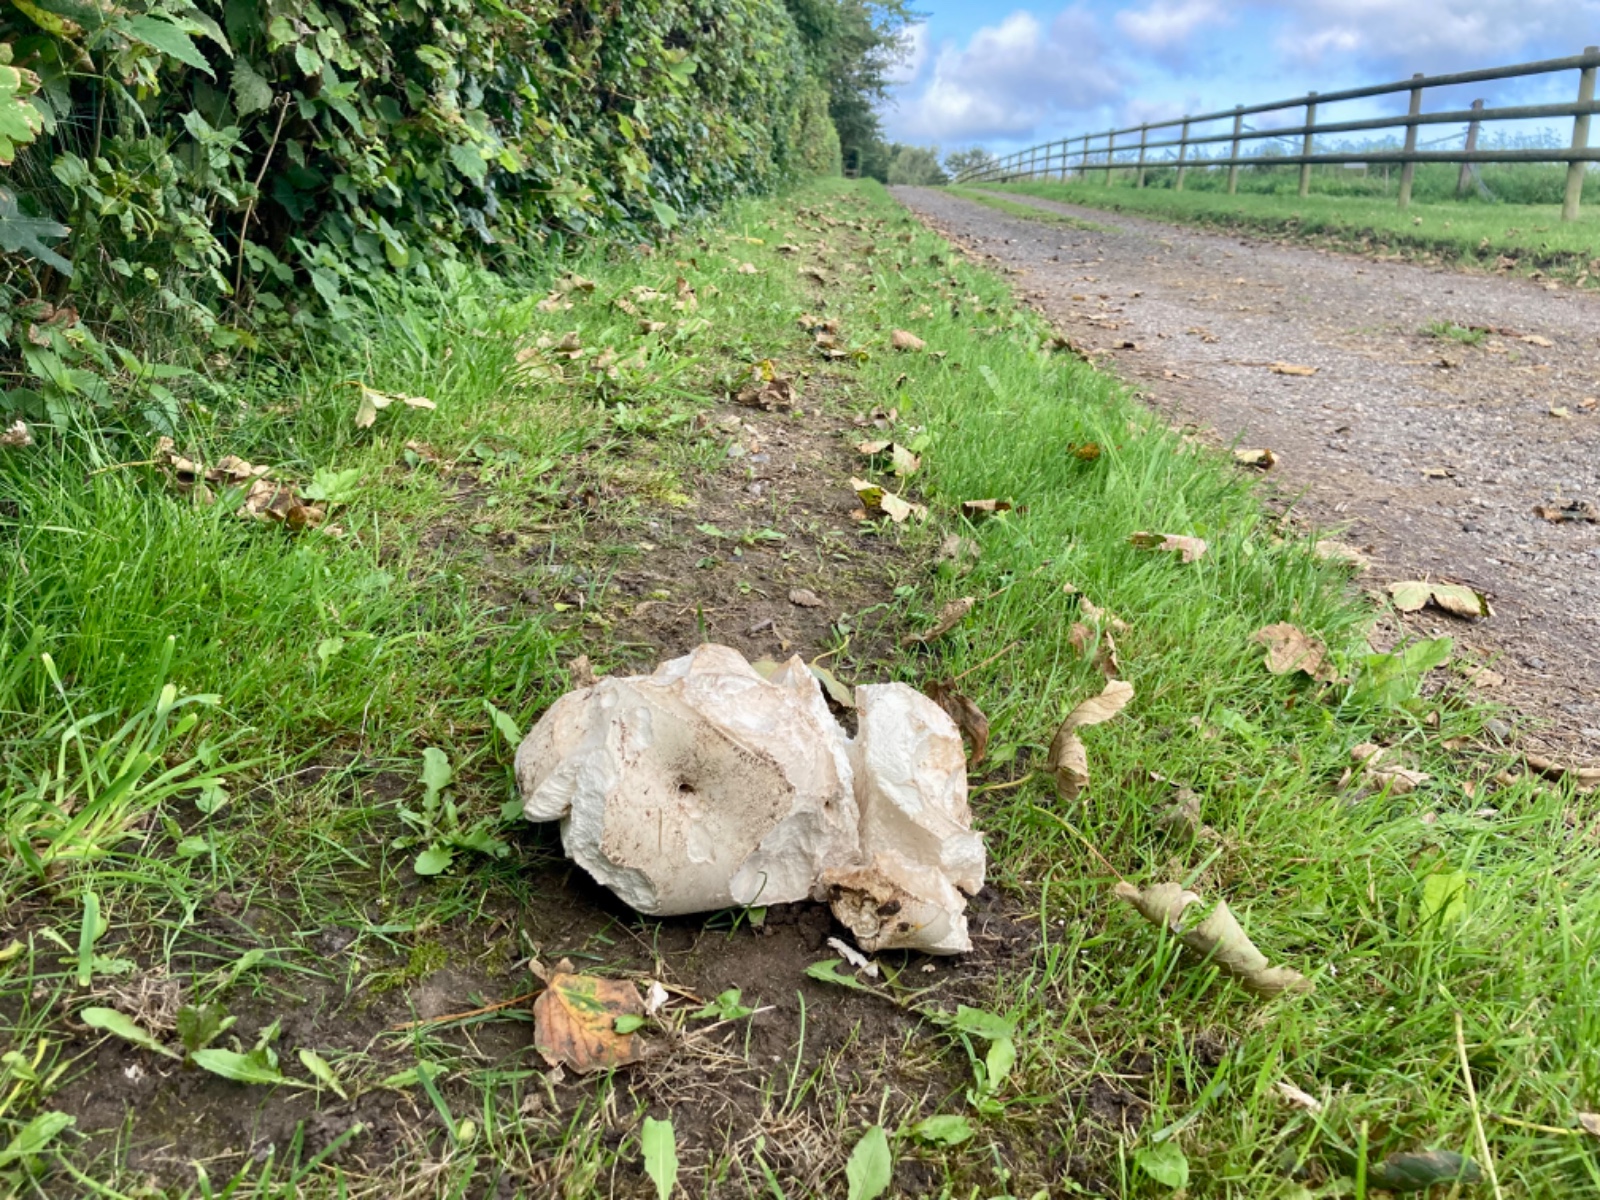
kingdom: Fungi
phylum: Basidiomycota
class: Agaricomycetes
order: Agaricales
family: Lycoperdaceae
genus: Calvatia
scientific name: Calvatia gigantea
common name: kæmpestøvbold
